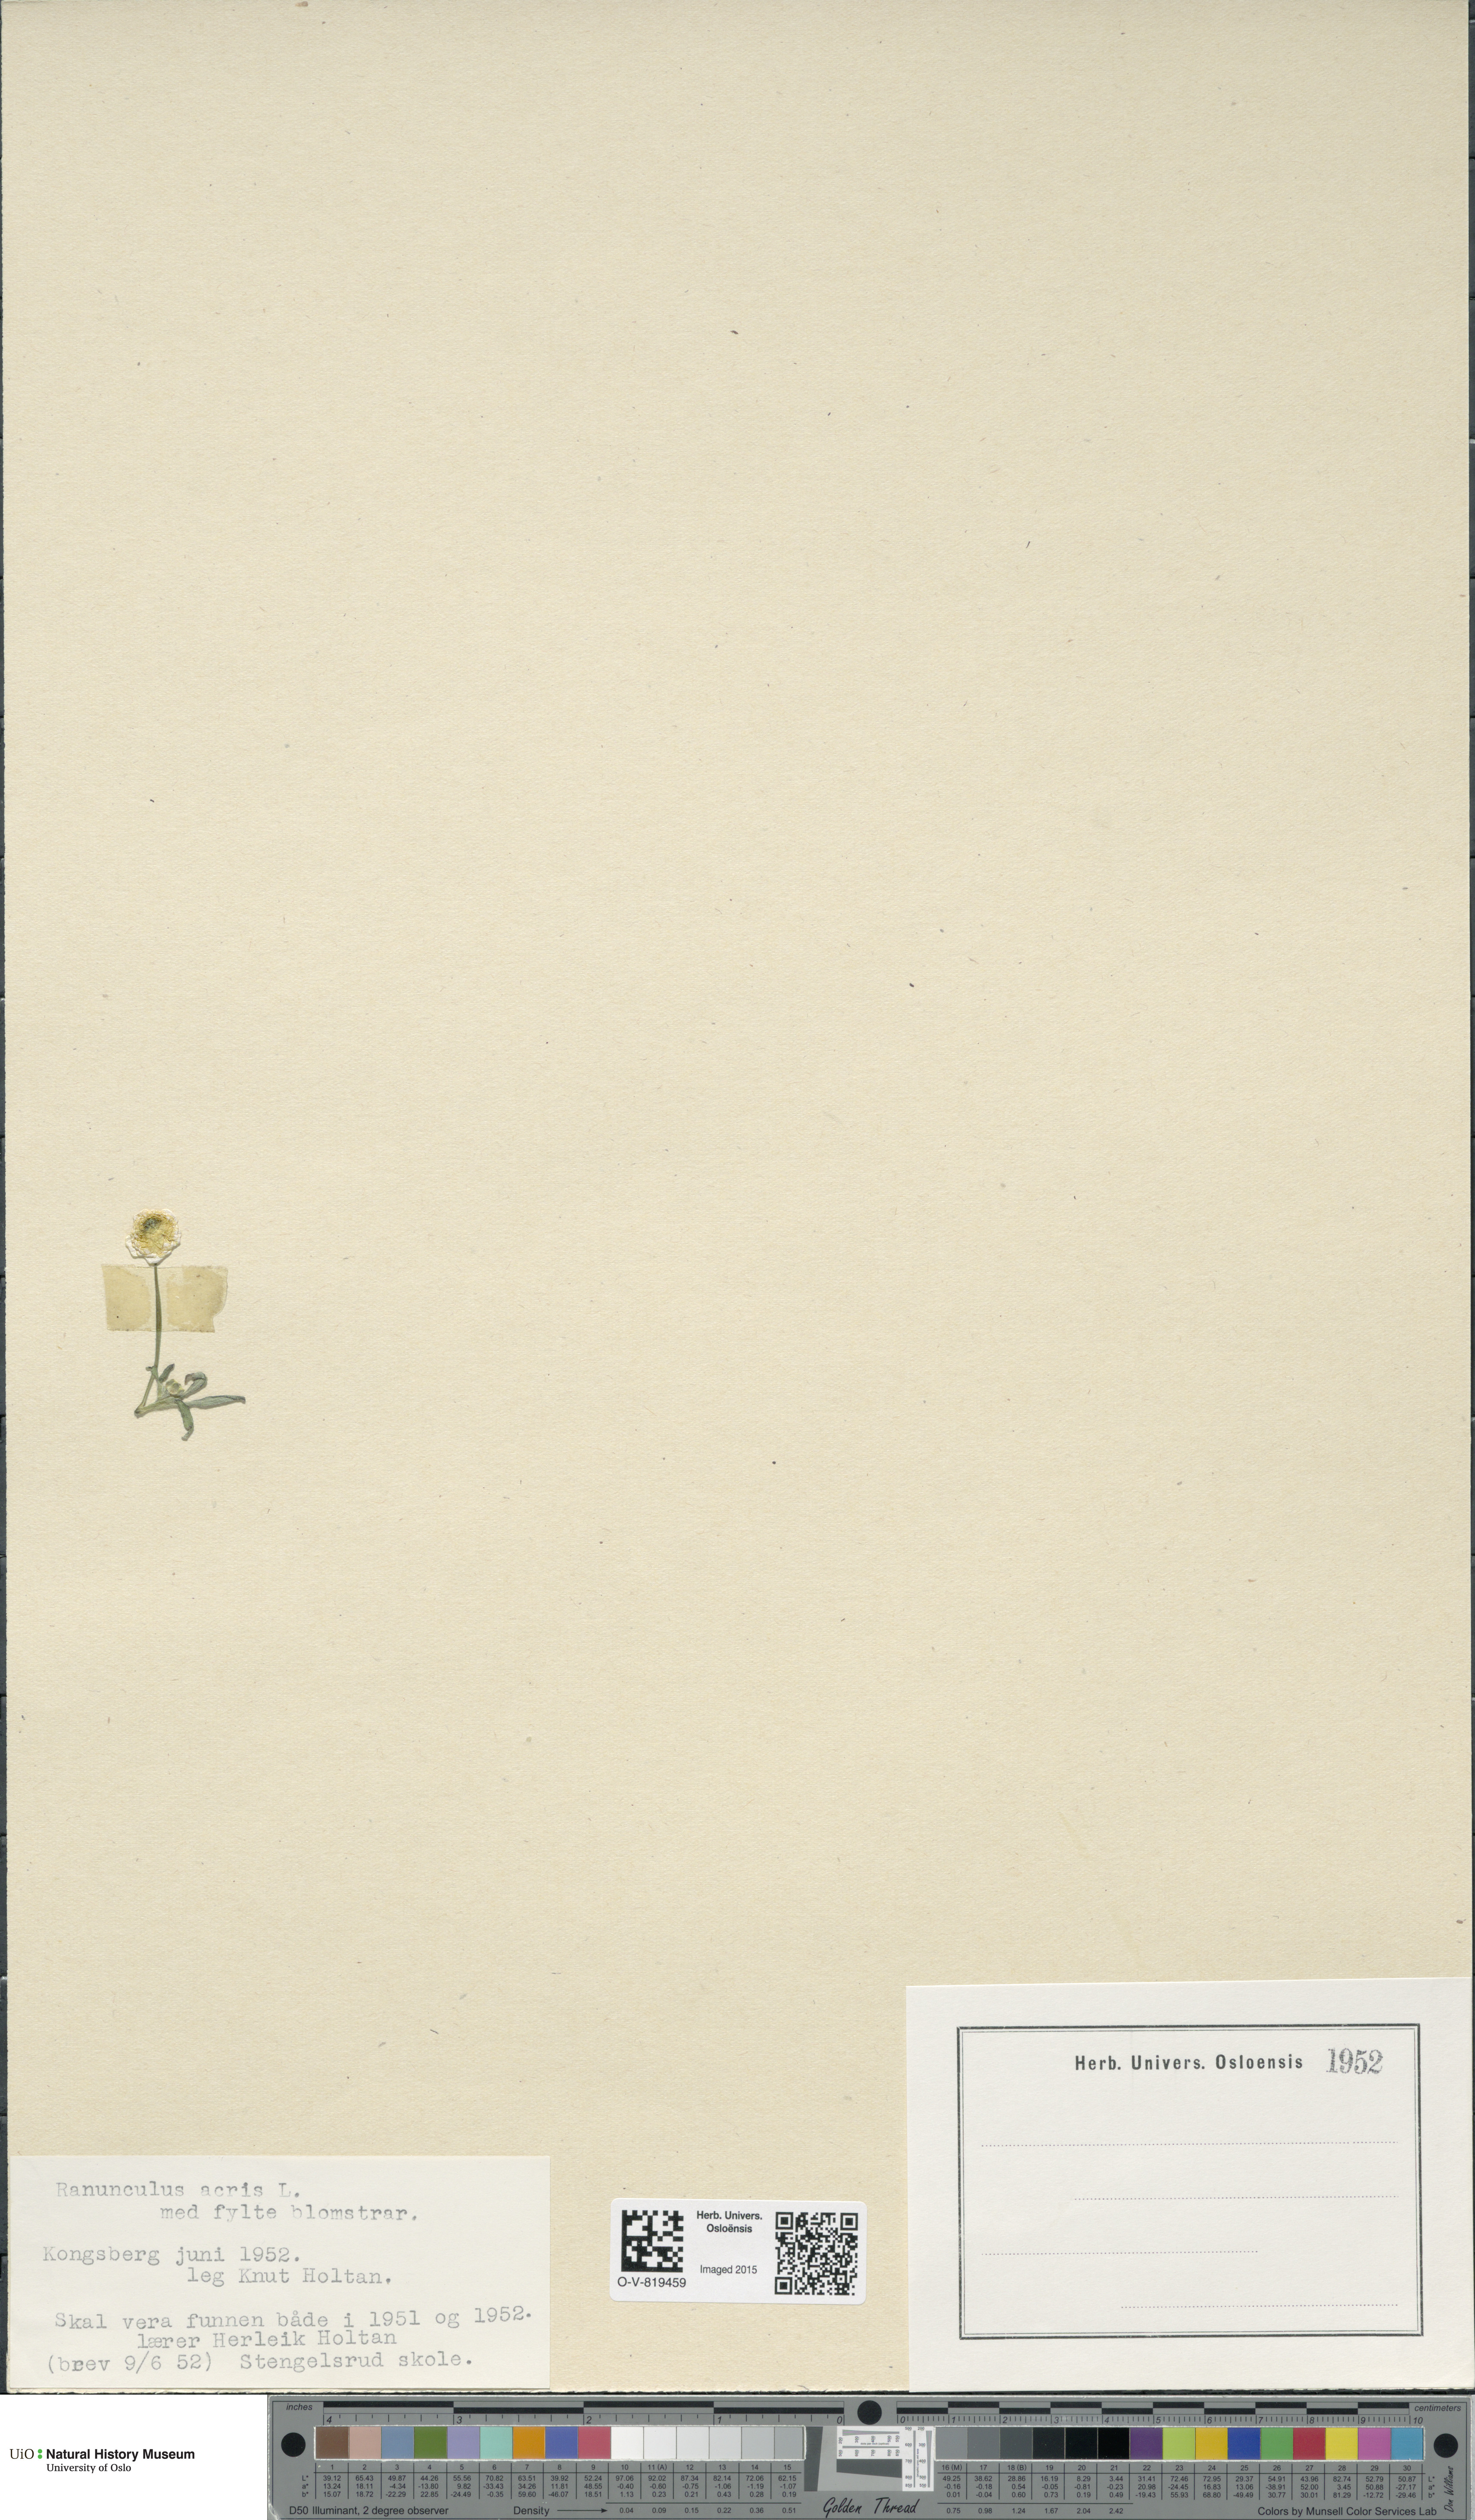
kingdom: Plantae
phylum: Tracheophyta
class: Magnoliopsida
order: Ranunculales
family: Ranunculaceae
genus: Ranunculus
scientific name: Ranunculus acris
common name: Meadow buttercup
